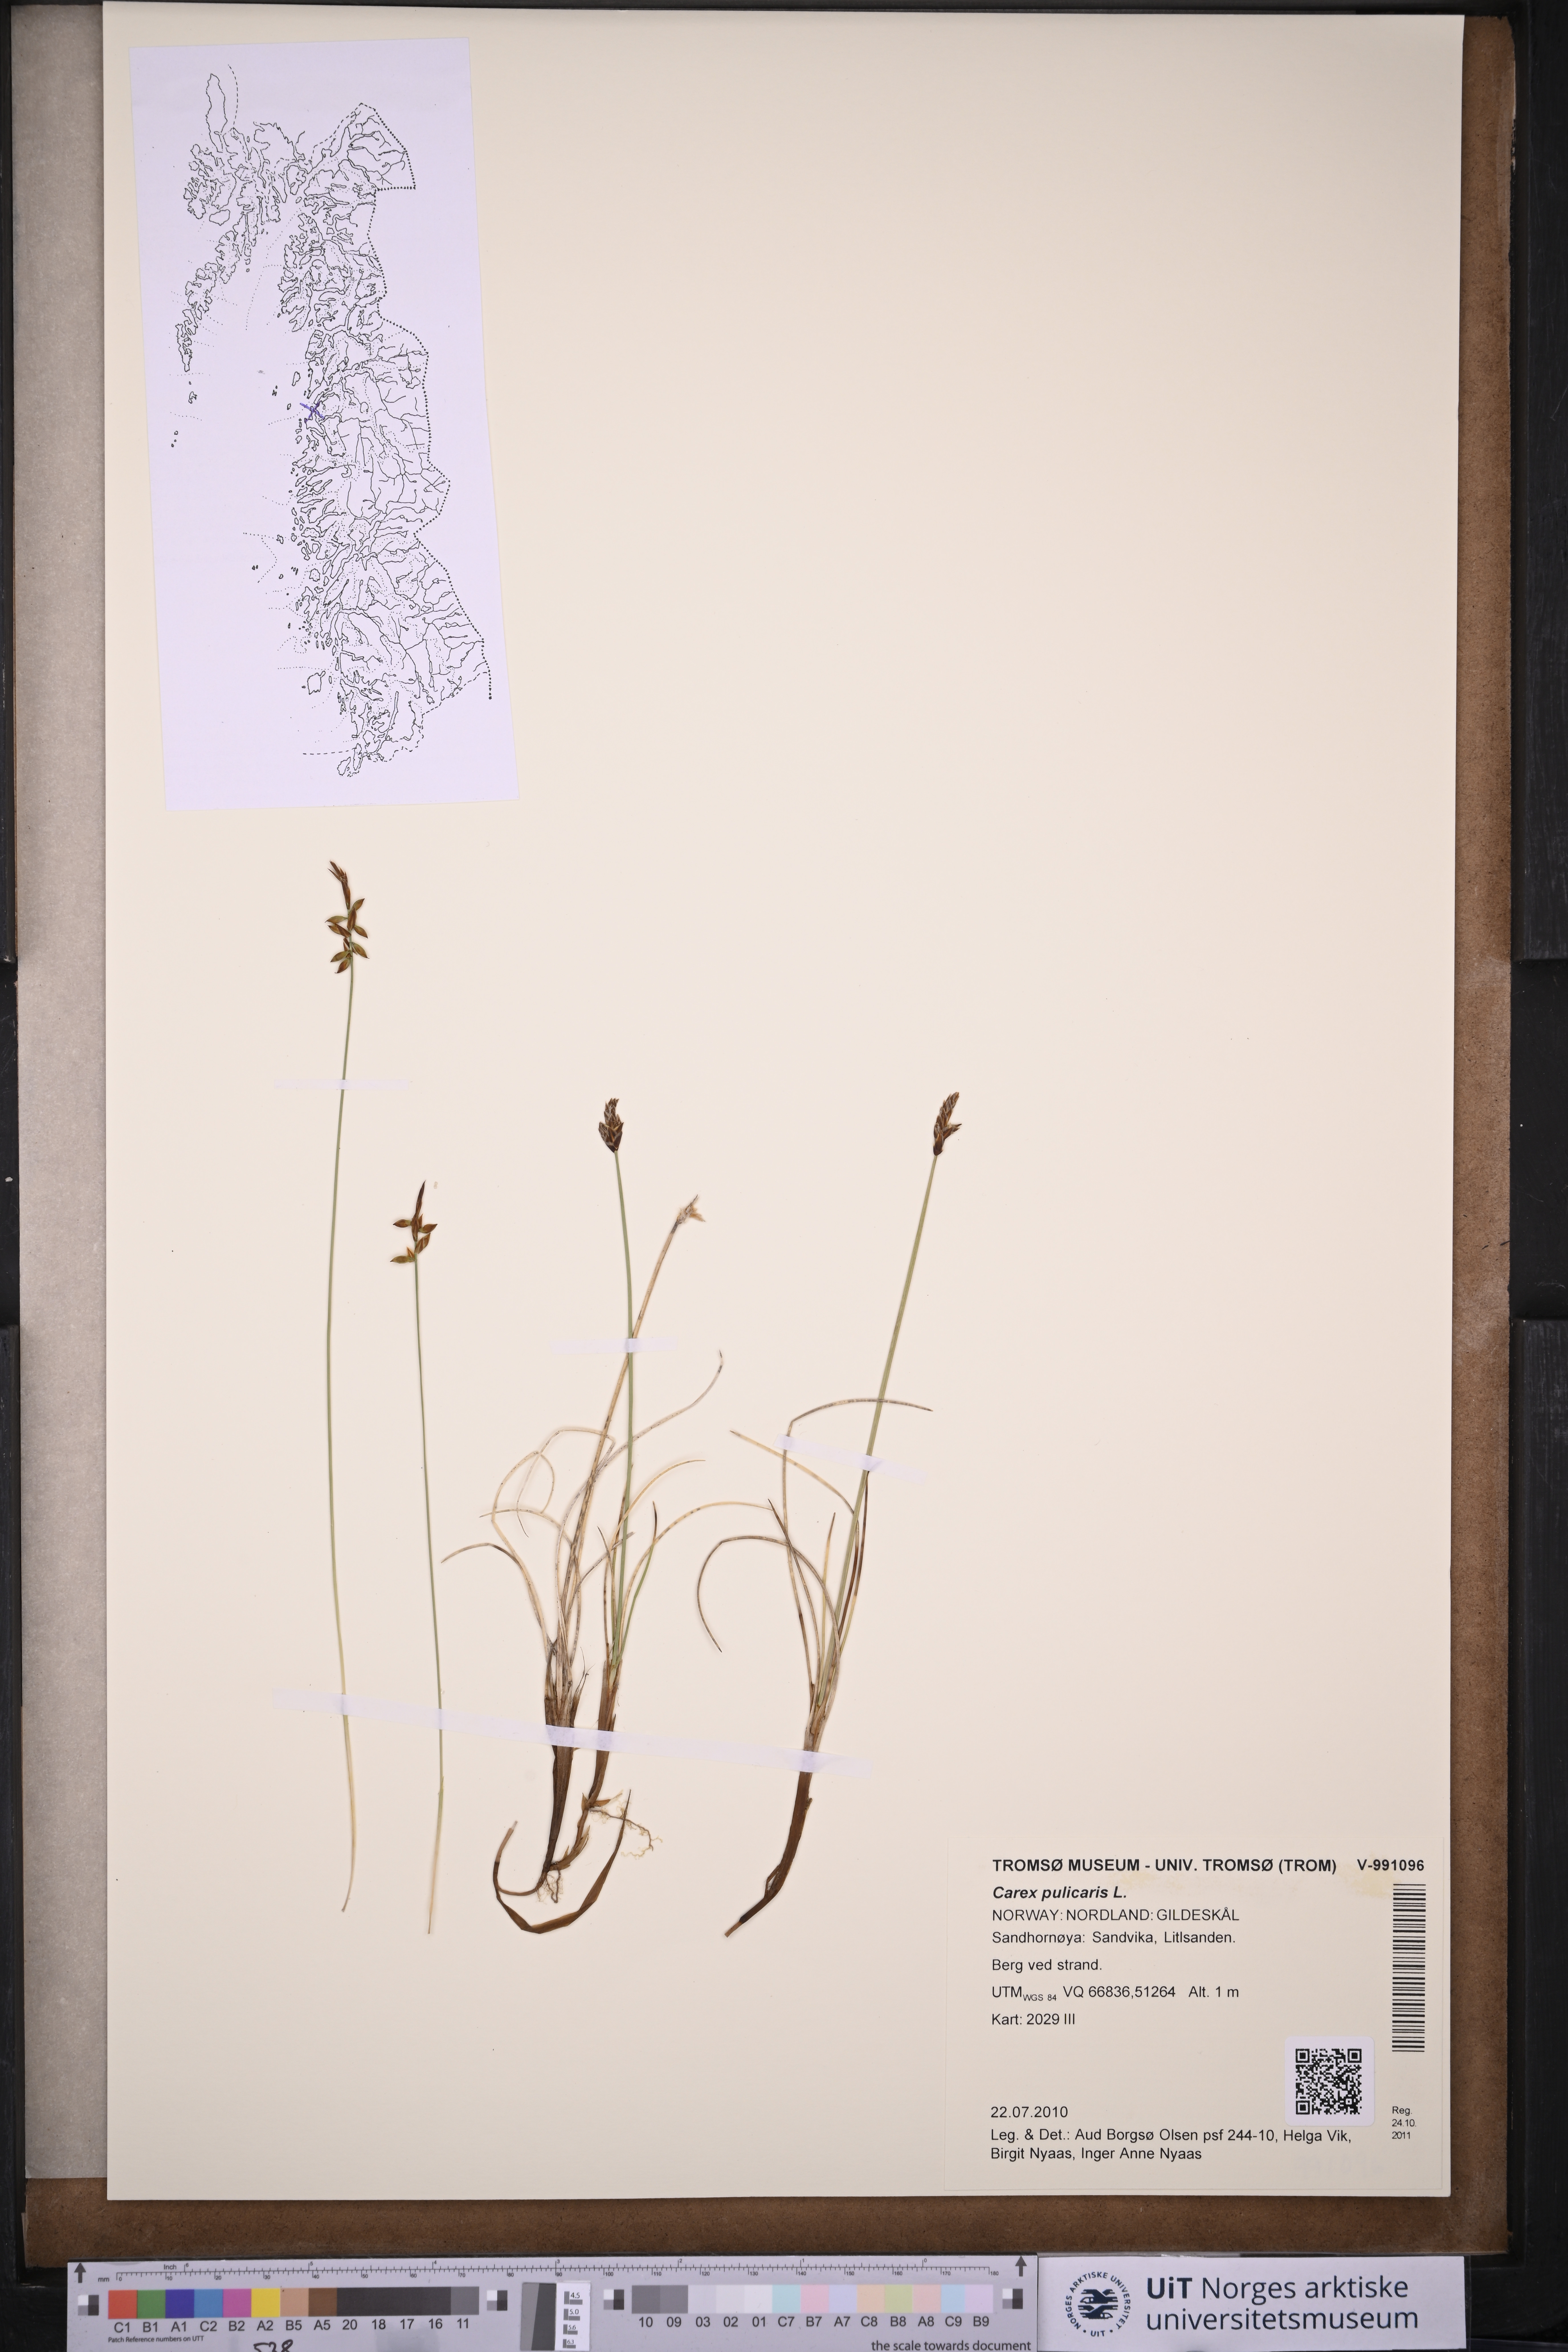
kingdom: Plantae
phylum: Tracheophyta
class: Liliopsida
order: Poales
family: Cyperaceae
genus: Carex
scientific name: Carex pulicaris
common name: Flea sedge
